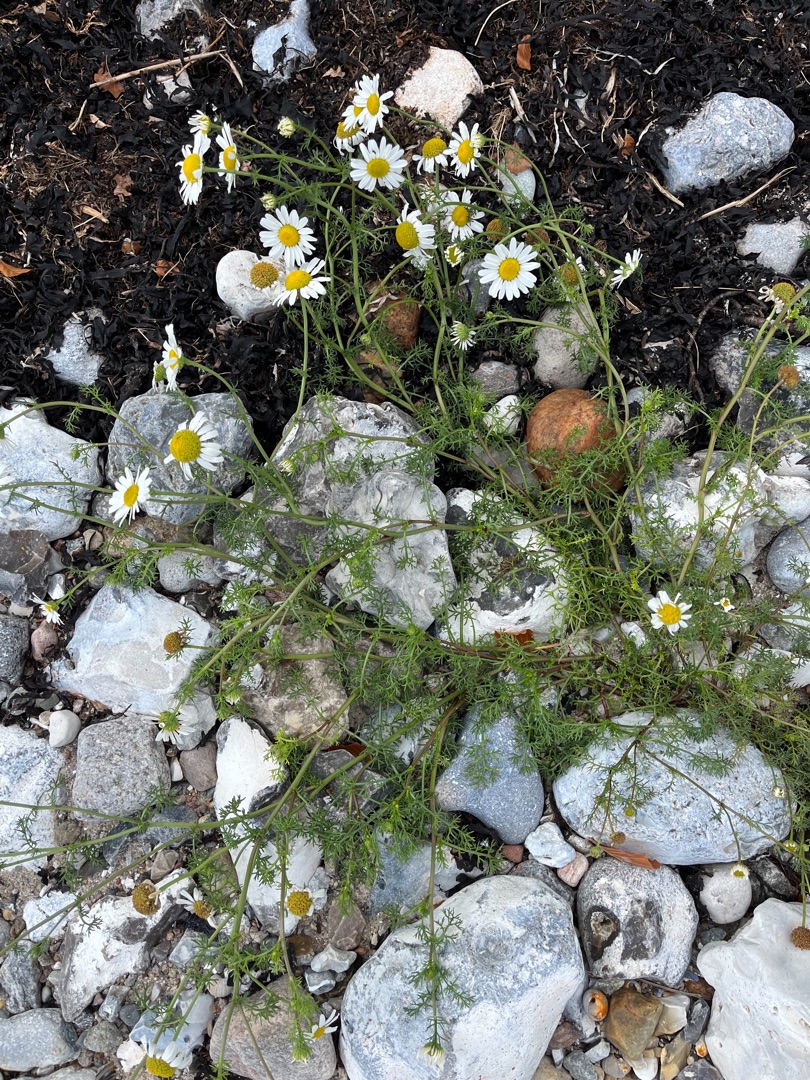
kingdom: Plantae
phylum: Tracheophyta
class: Magnoliopsida
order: Asterales
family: Asteraceae
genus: Tripleurospermum
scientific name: Tripleurospermum maritimum
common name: Strand-kamille
